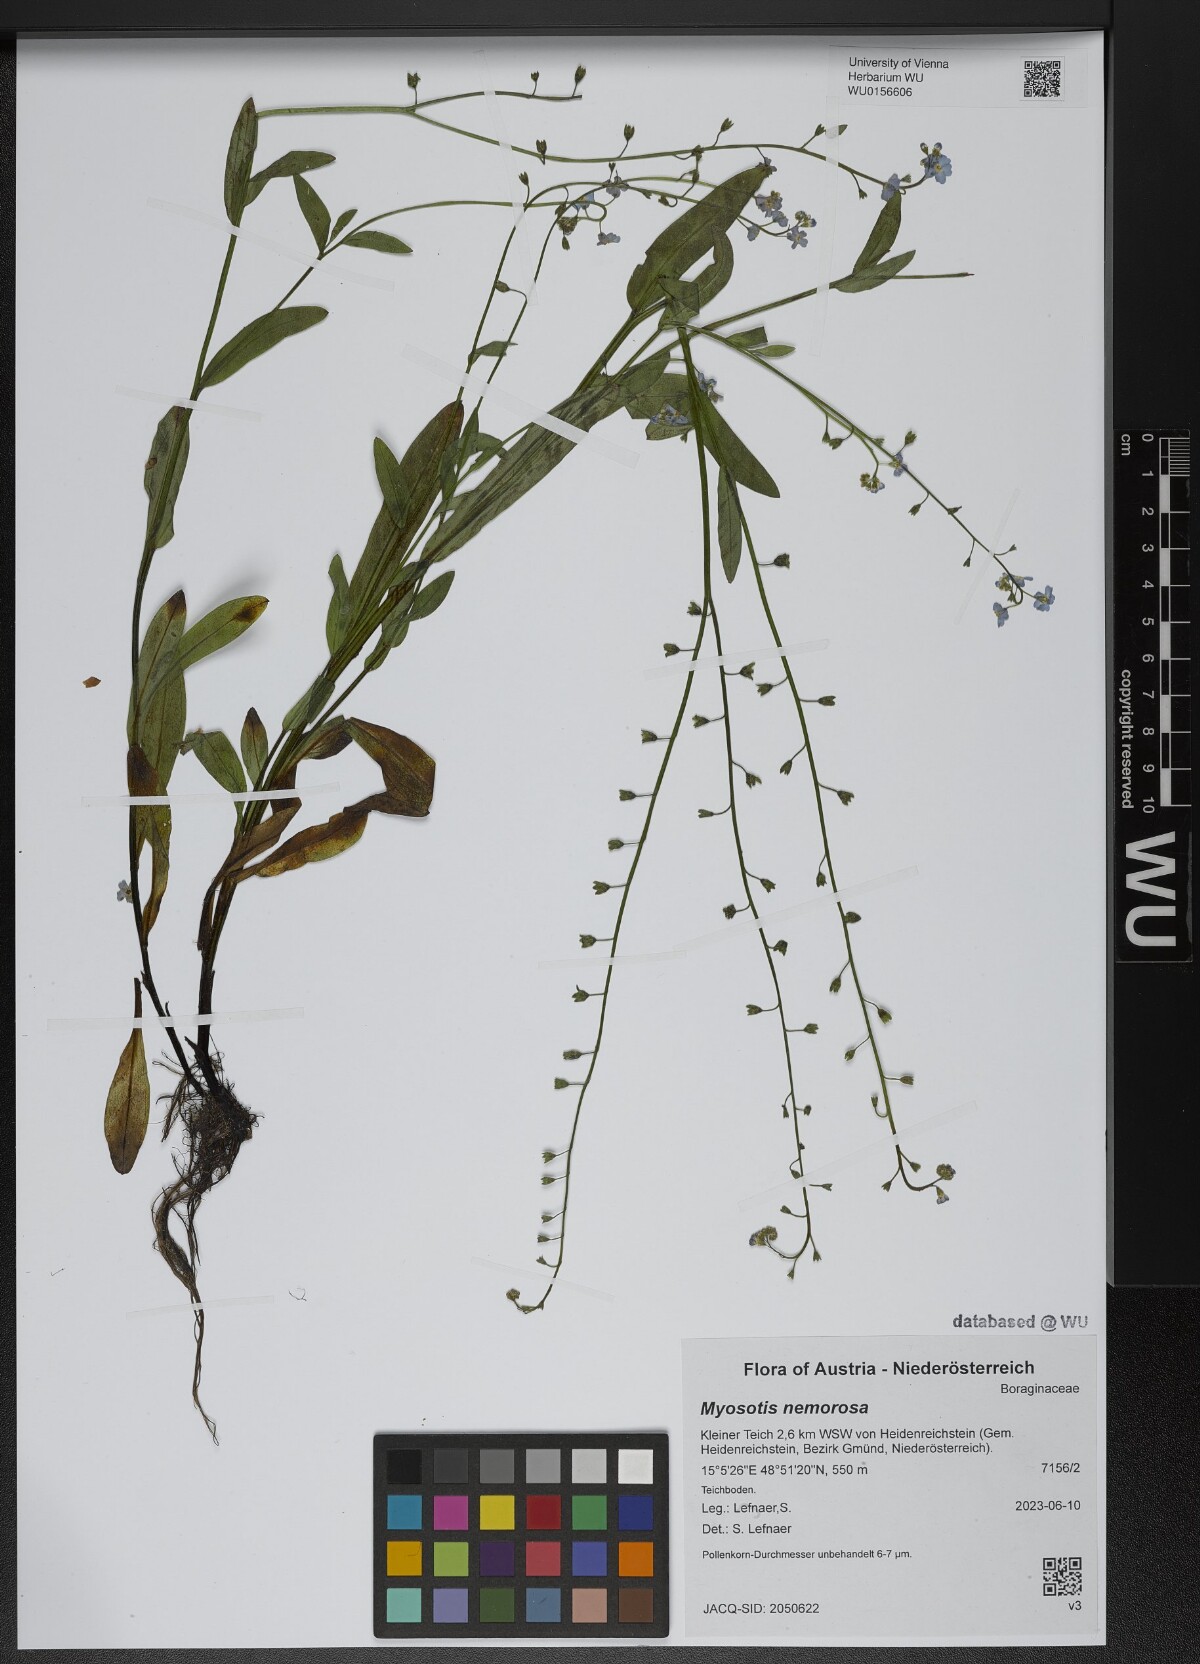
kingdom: Plantae
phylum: Tracheophyta
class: Magnoliopsida
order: Boraginales
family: Boraginaceae
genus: Myosotis
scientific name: Myosotis nemorosa
